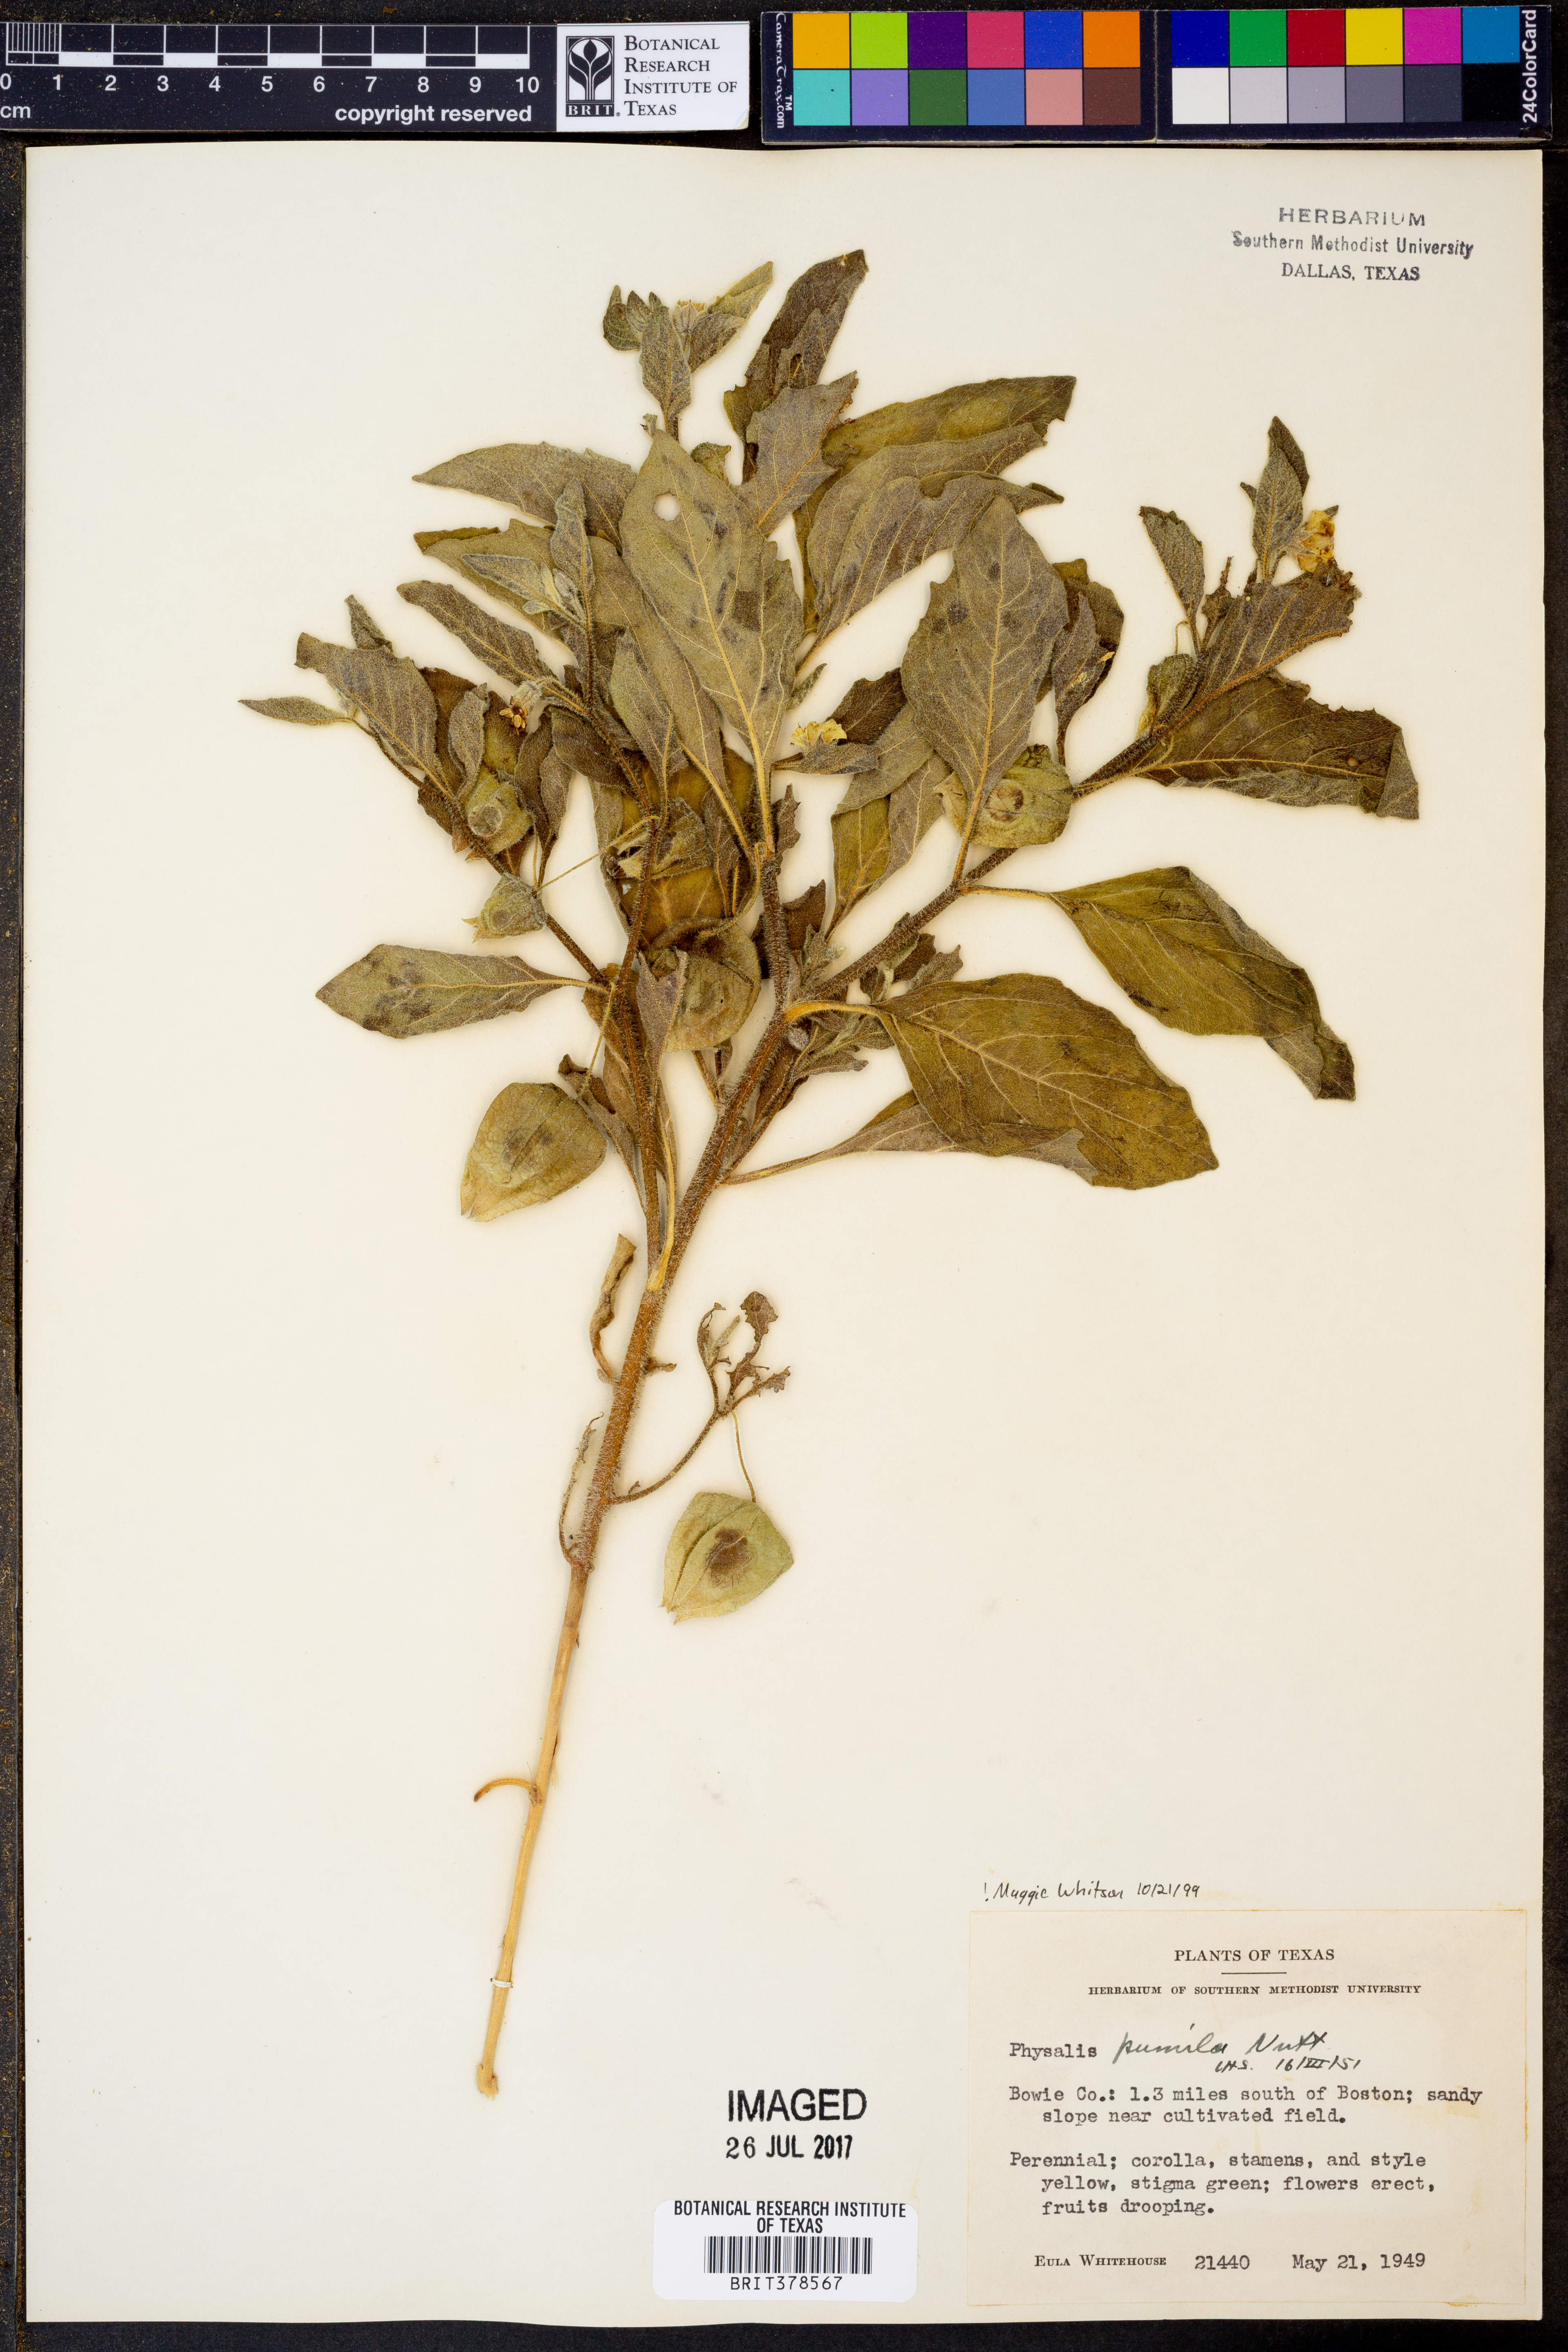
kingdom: Plantae
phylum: Tracheophyta
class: Magnoliopsida
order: Solanales
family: Solanaceae
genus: Physalis
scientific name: Physalis pumila
